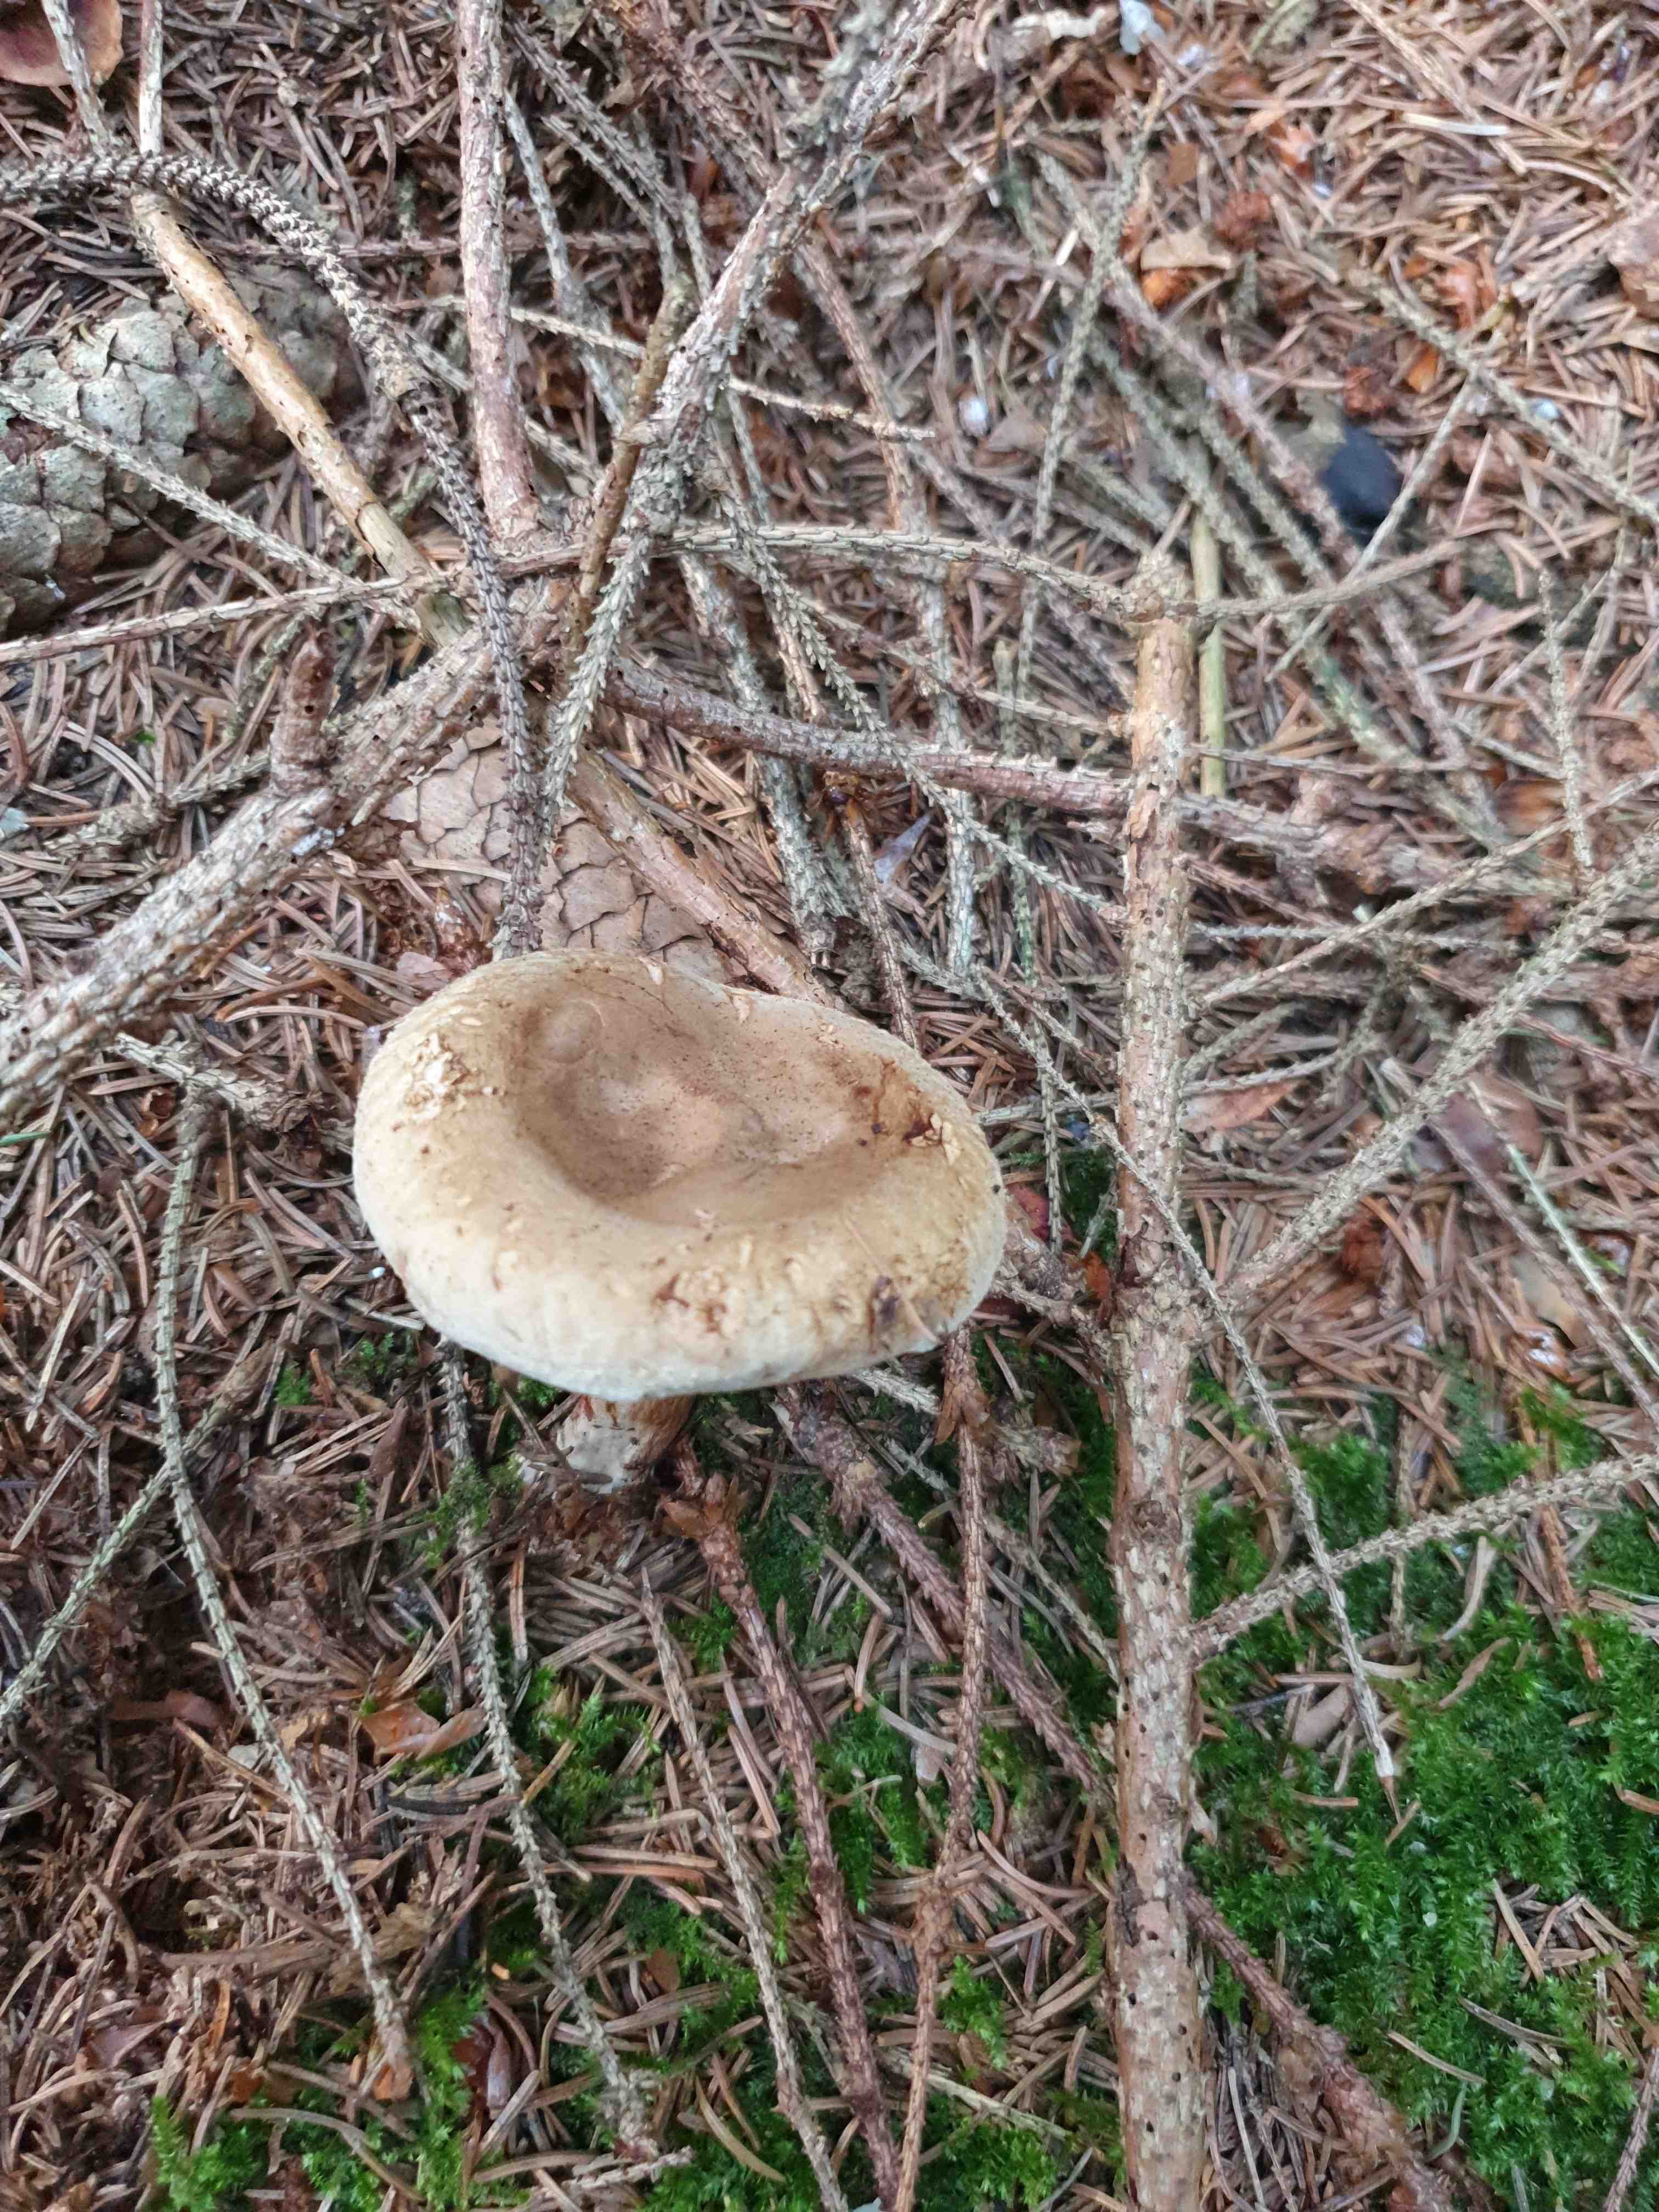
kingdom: Fungi
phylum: Basidiomycota
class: Agaricomycetes
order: Boletales
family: Paxillaceae
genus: Paxillus
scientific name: Paxillus involutus
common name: almindelig netbladhat
